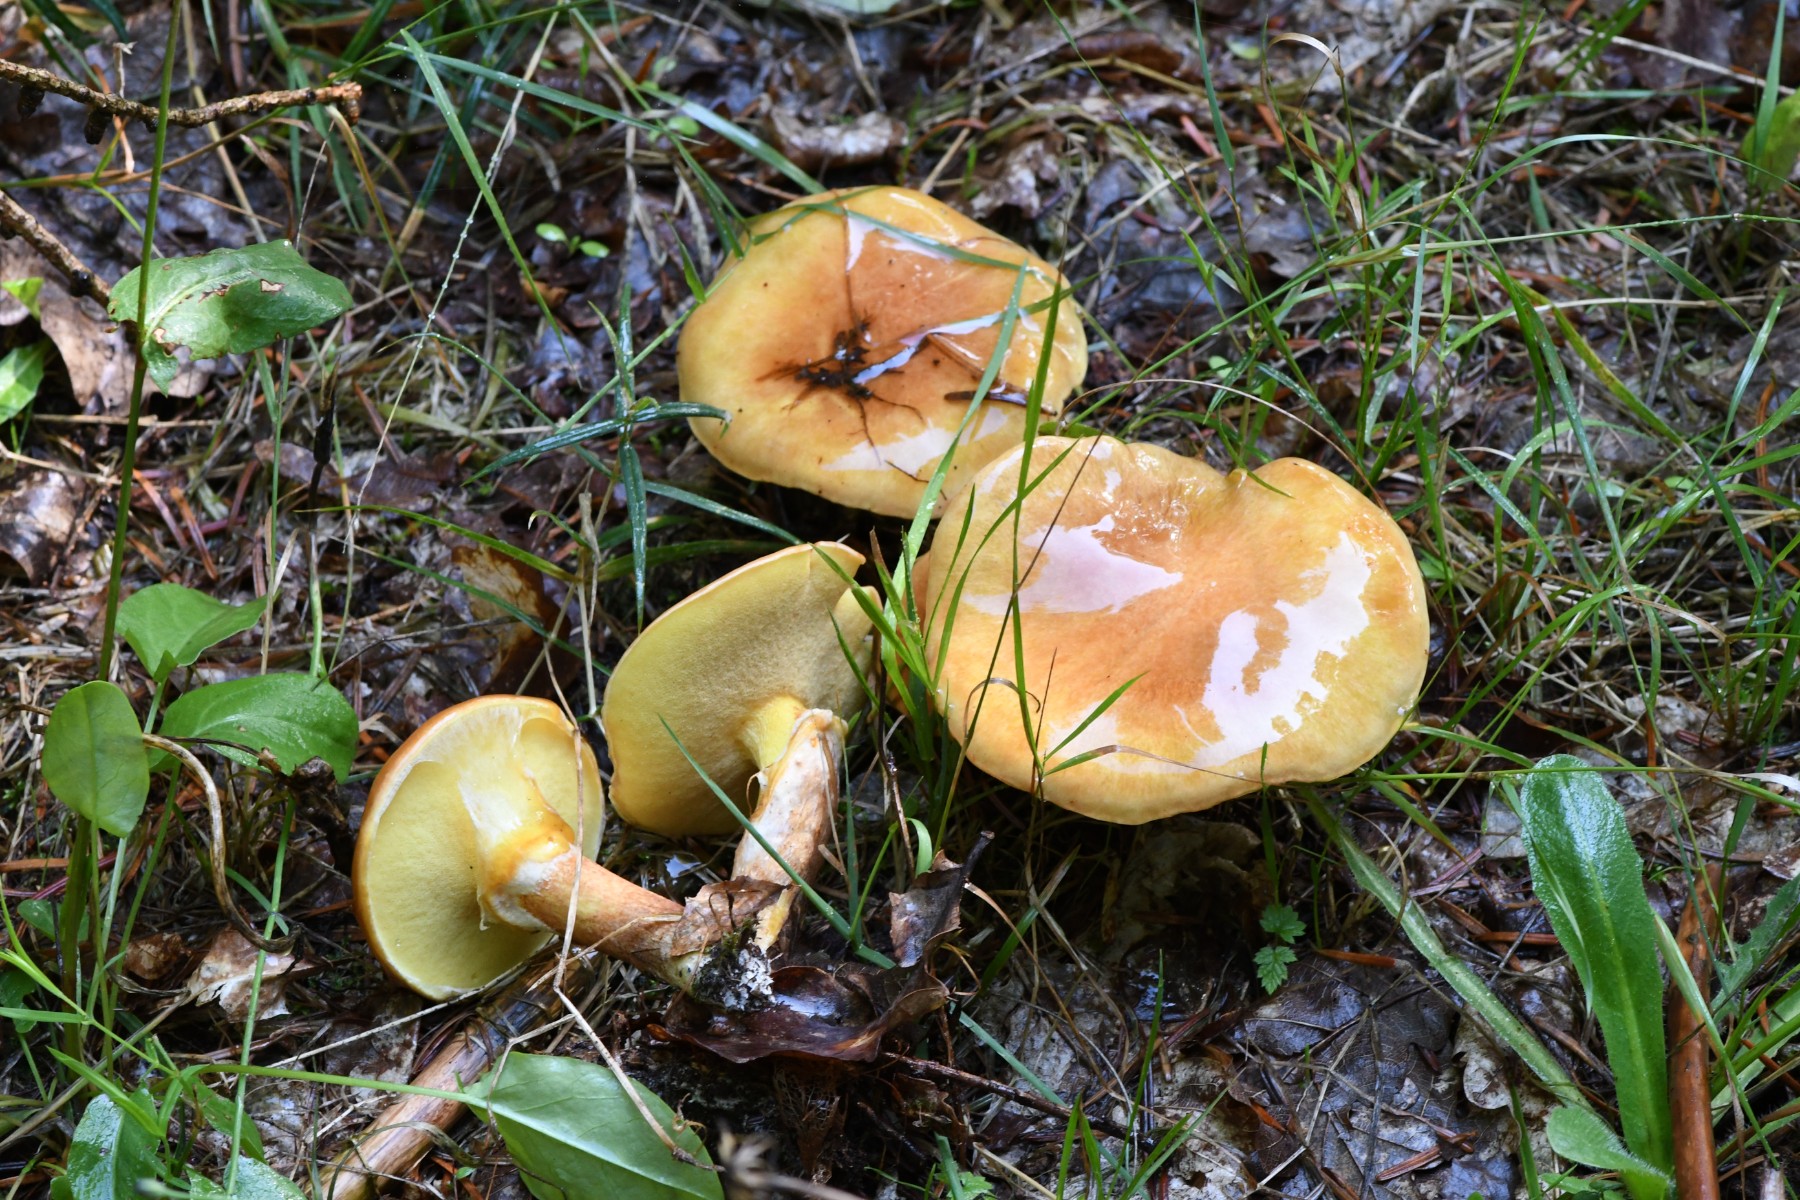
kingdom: Fungi
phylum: Basidiomycota
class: Agaricomycetes
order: Boletales
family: Suillaceae
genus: Suillus
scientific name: Suillus grevillei
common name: lærke-slimrørhat
